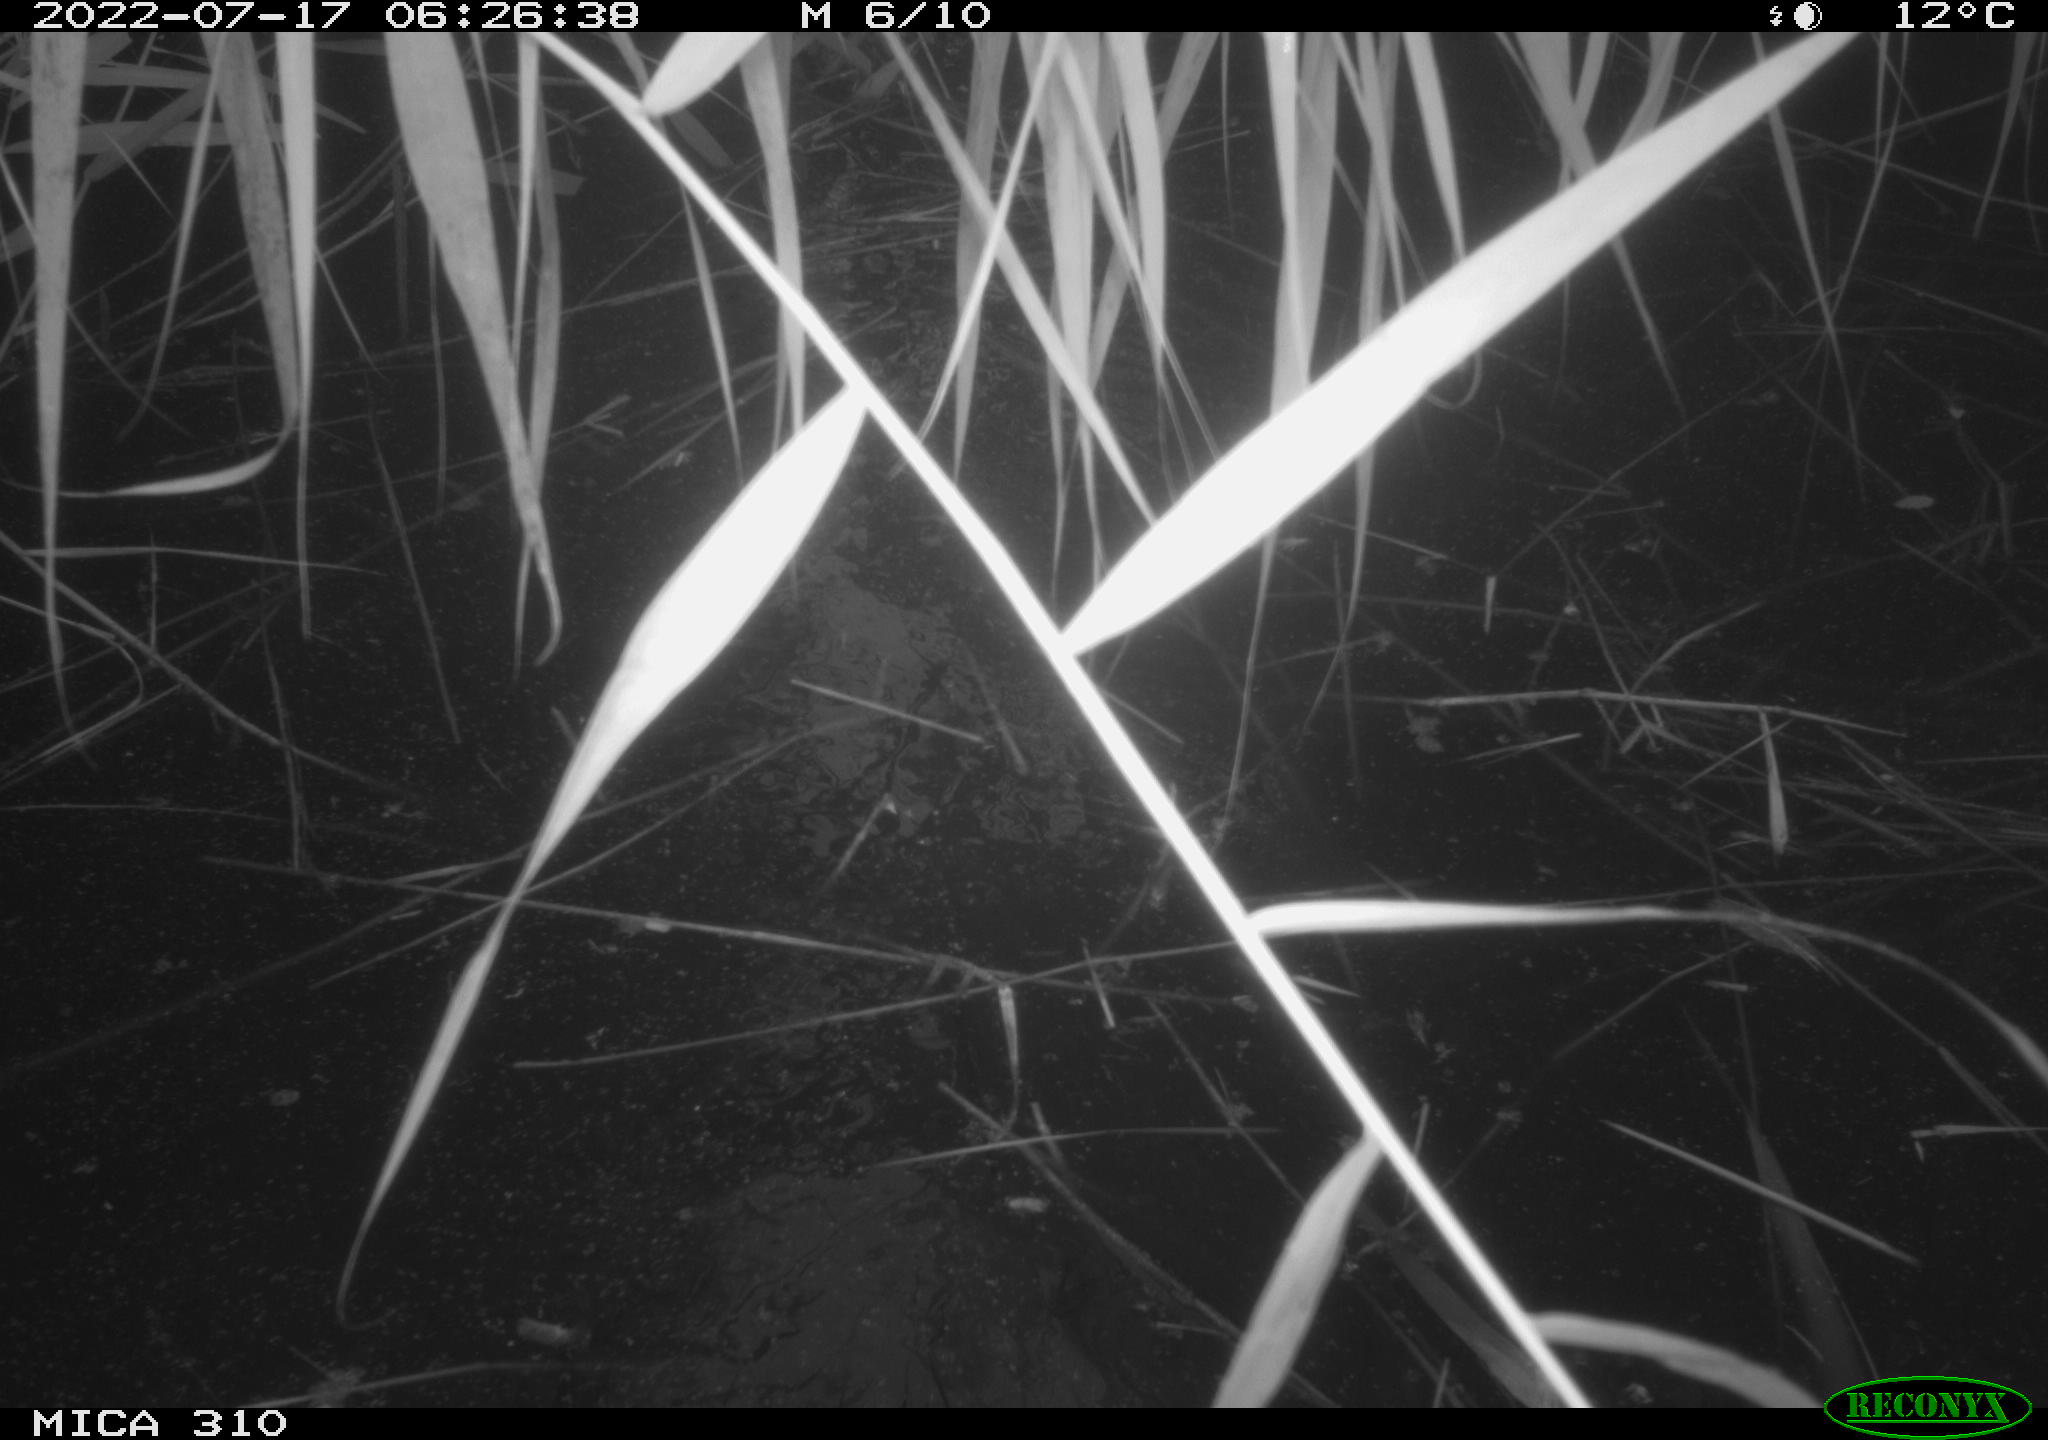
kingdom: Animalia
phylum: Chordata
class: Aves
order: Anseriformes
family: Anatidae
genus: Anas
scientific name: Anas platyrhynchos
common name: Mallard
